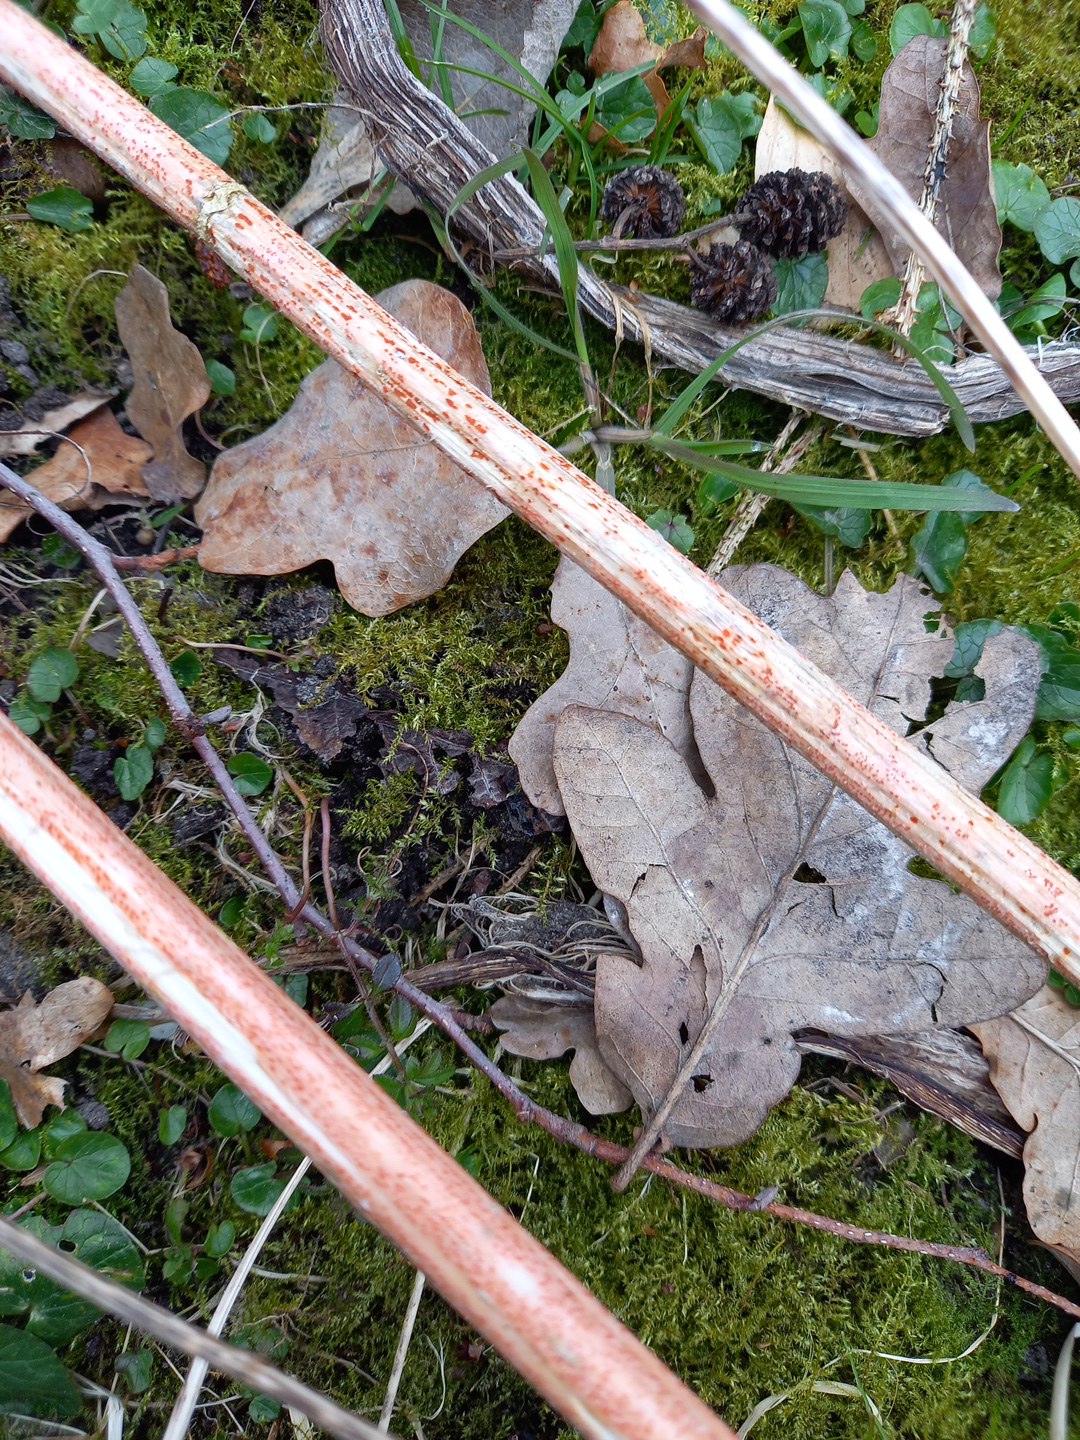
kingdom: Fungi
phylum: Ascomycota
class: Leotiomycetes
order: Helotiales
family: Calloriaceae
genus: Calloria
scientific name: Calloria urticae
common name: nælde-orangeskive
